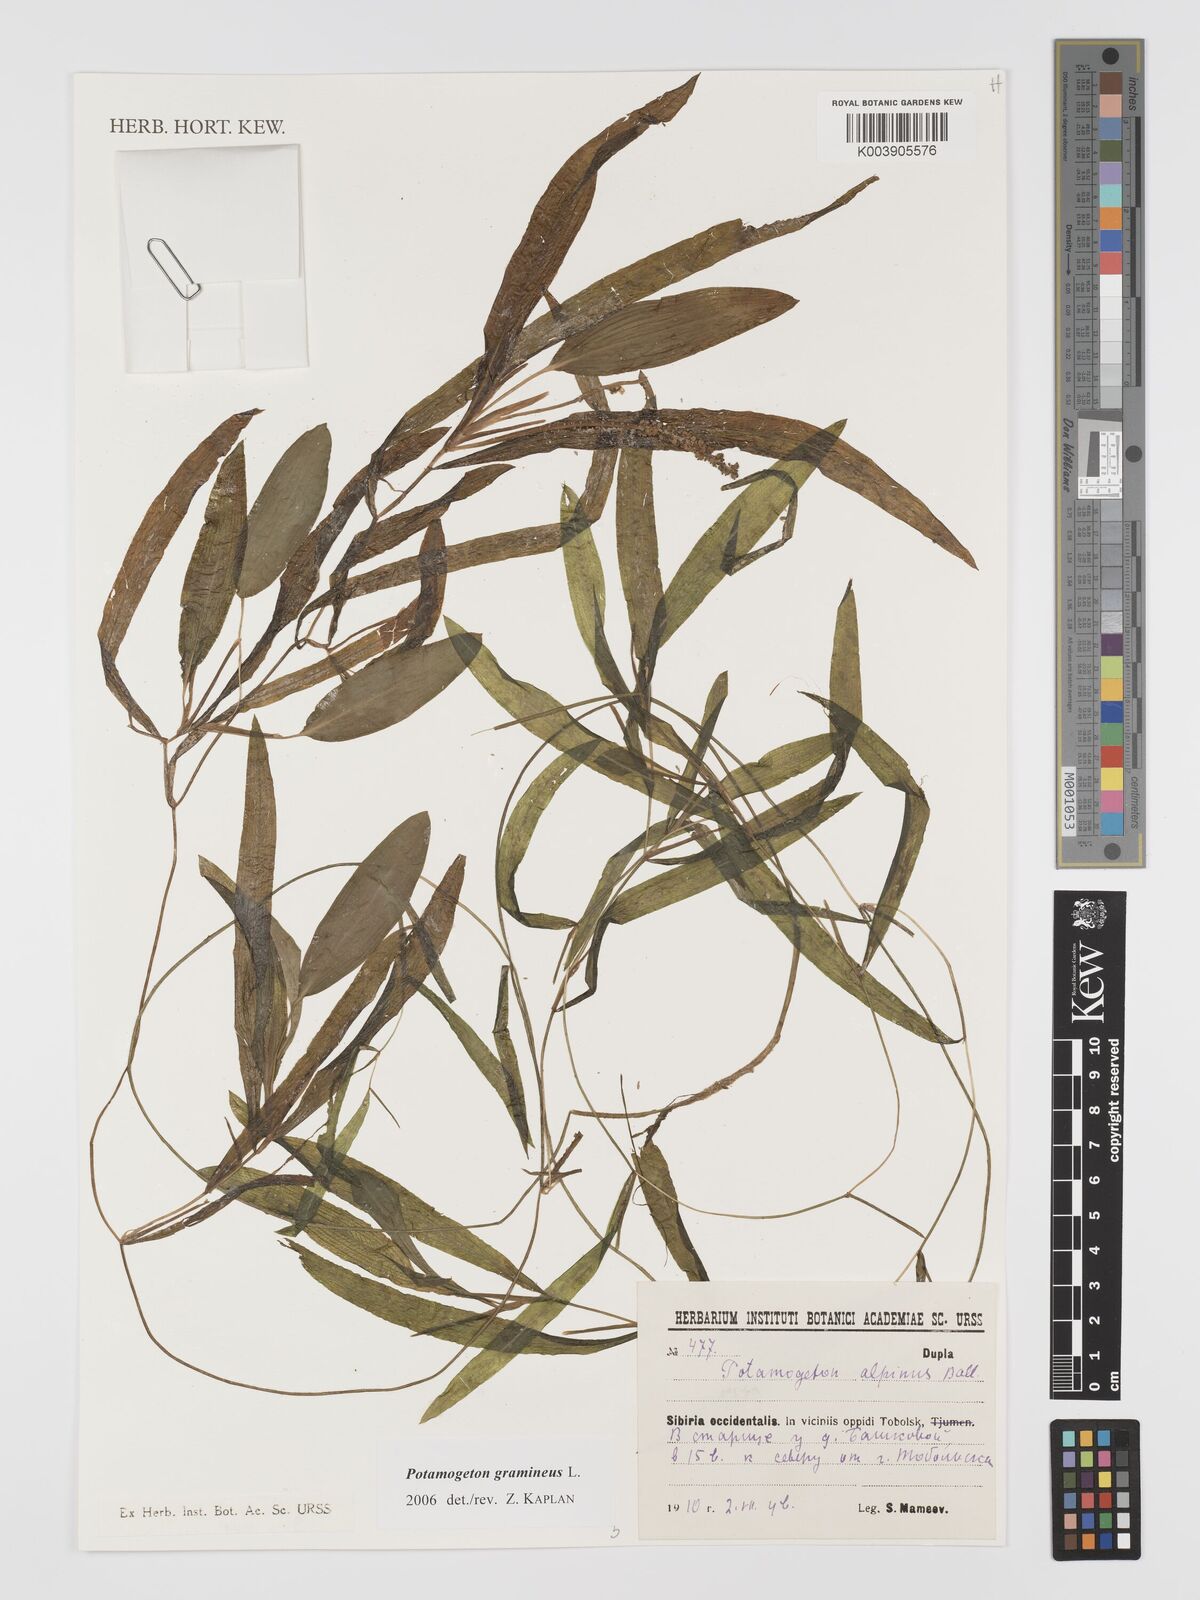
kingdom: Plantae
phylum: Tracheophyta
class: Liliopsida
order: Alismatales
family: Potamogetonaceae
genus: Potamogeton
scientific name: Potamogeton gramineus
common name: Various-leaved pondweed
